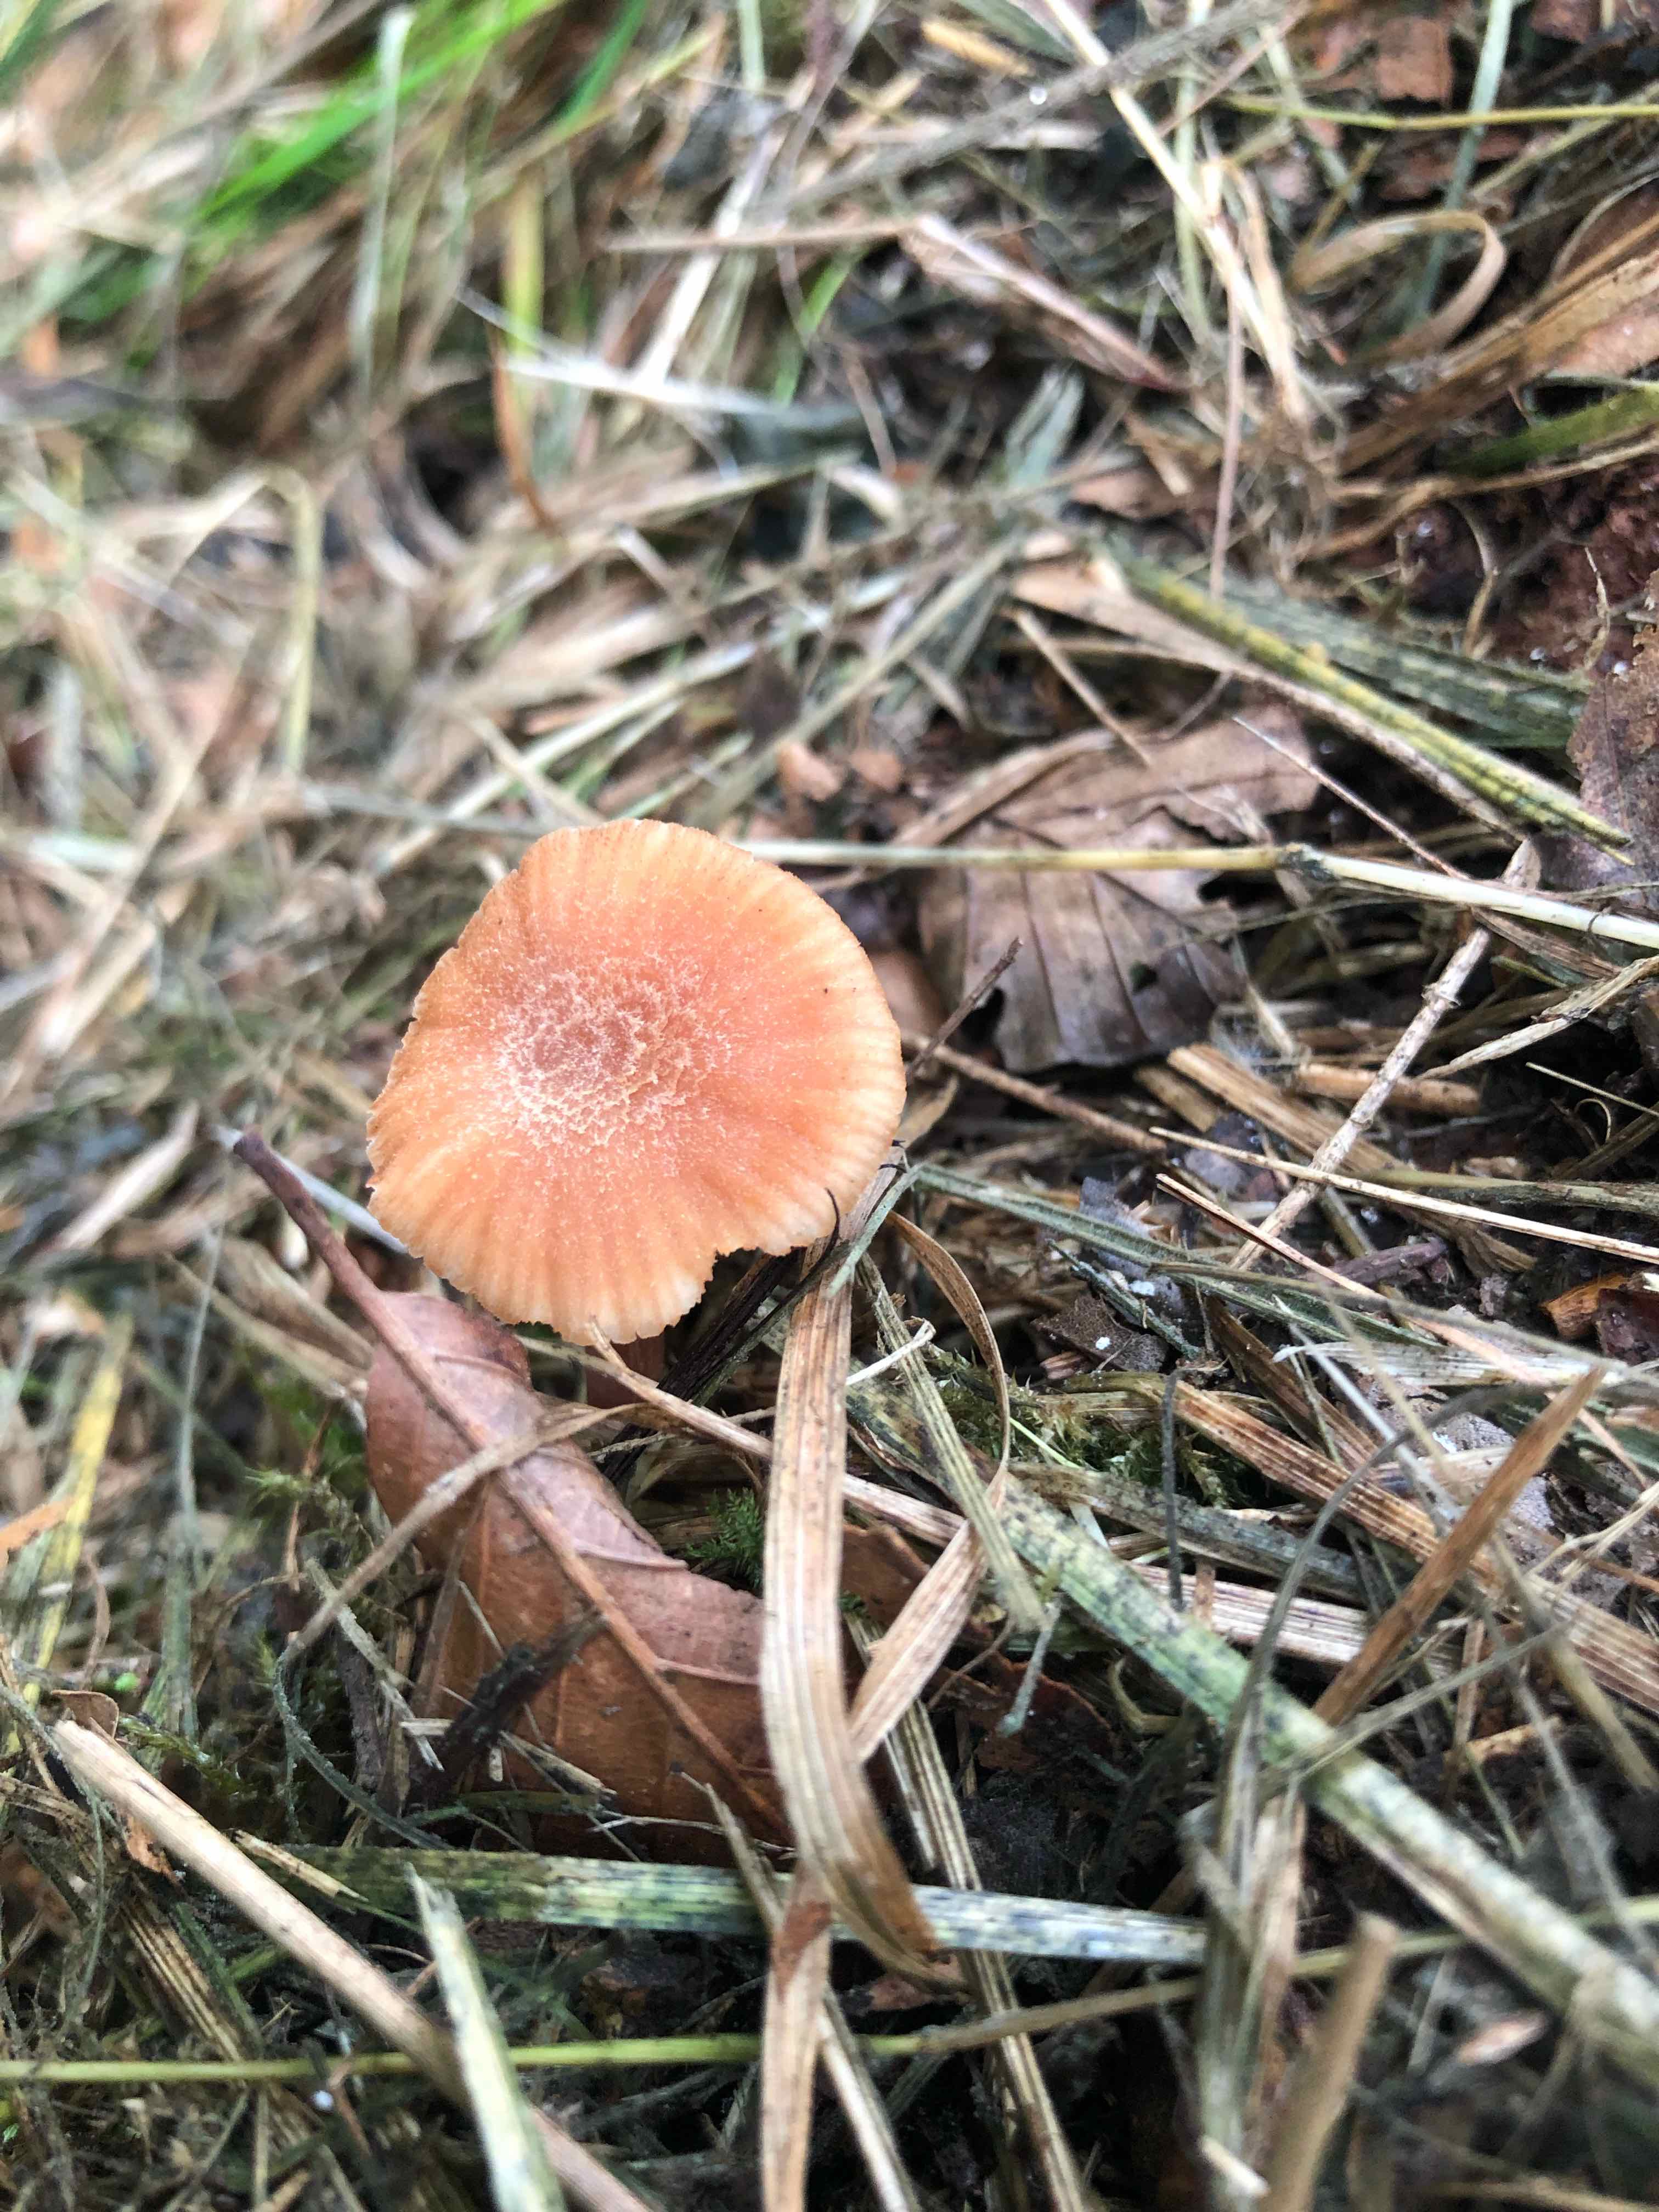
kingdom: Fungi
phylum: Basidiomycota
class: Agaricomycetes
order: Agaricales
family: Hydnangiaceae
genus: Laccaria
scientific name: Laccaria laccata
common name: rød ametysthat
